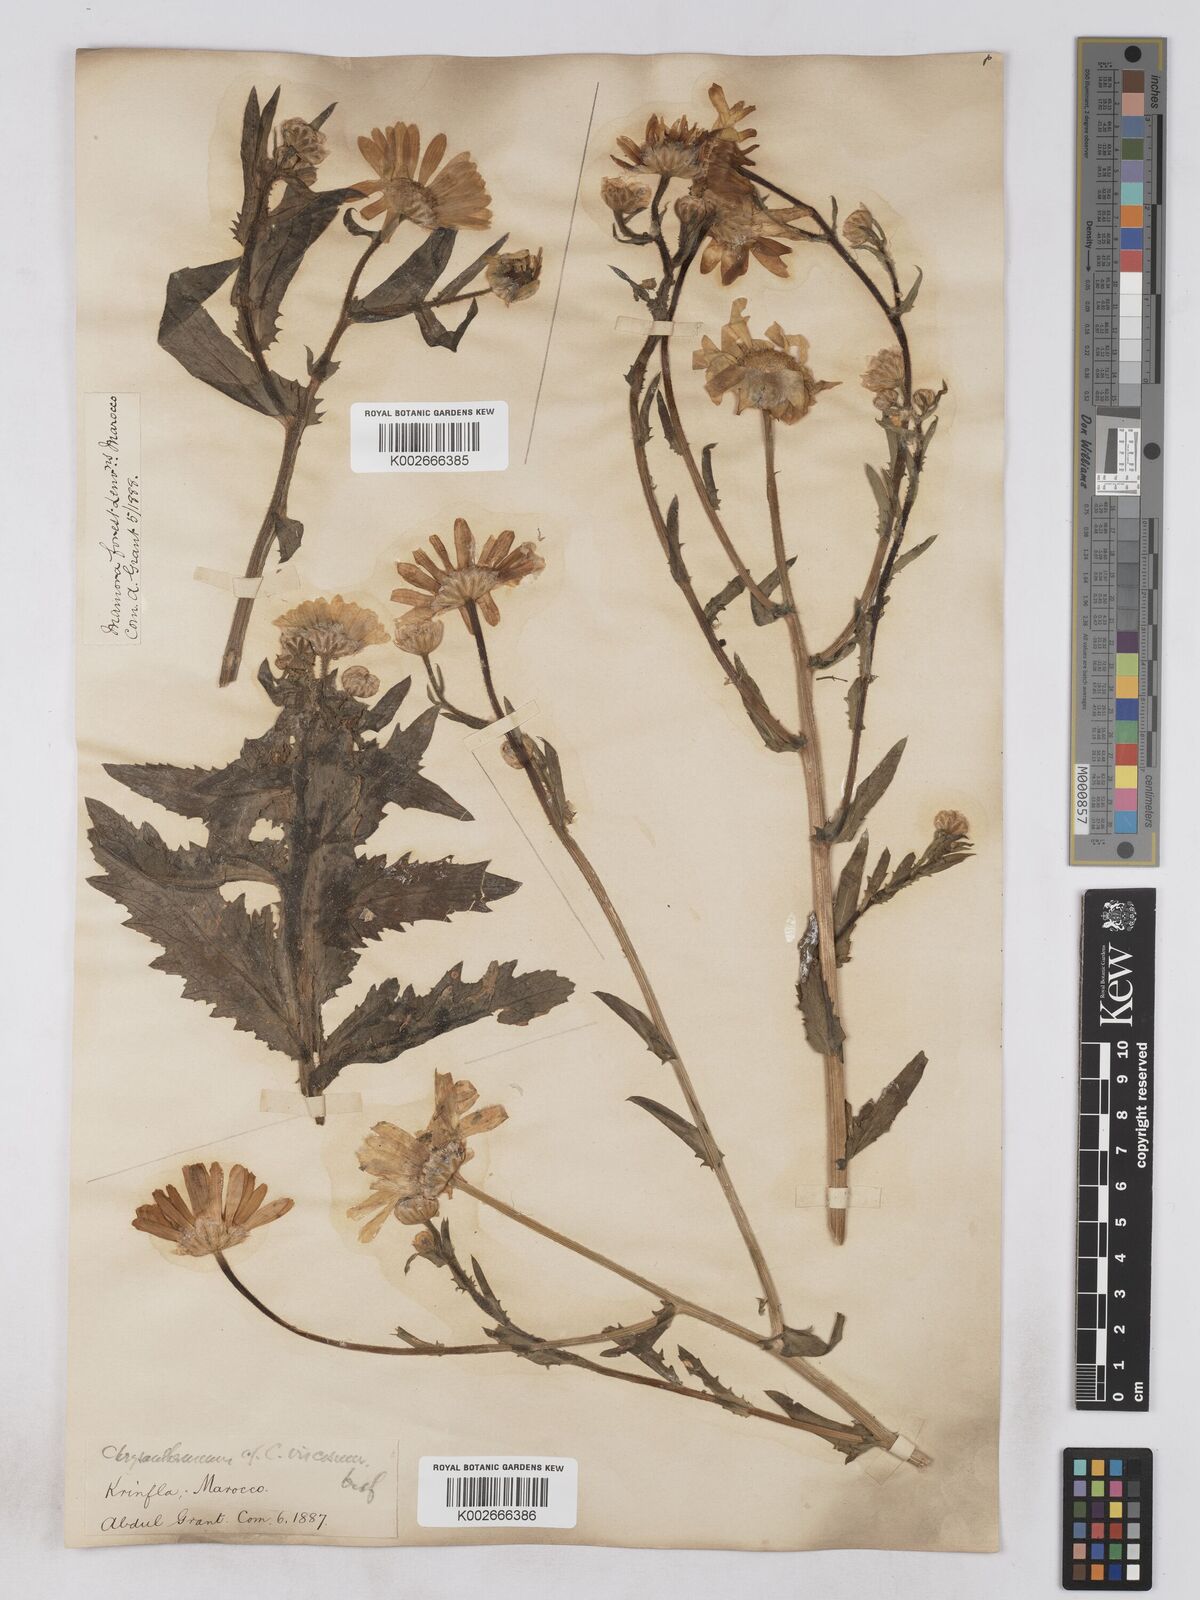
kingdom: Plantae
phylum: Tracheophyta
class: Magnoliopsida
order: Asterales
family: Asteraceae
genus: Heteranthemis
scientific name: Heteranthemis
